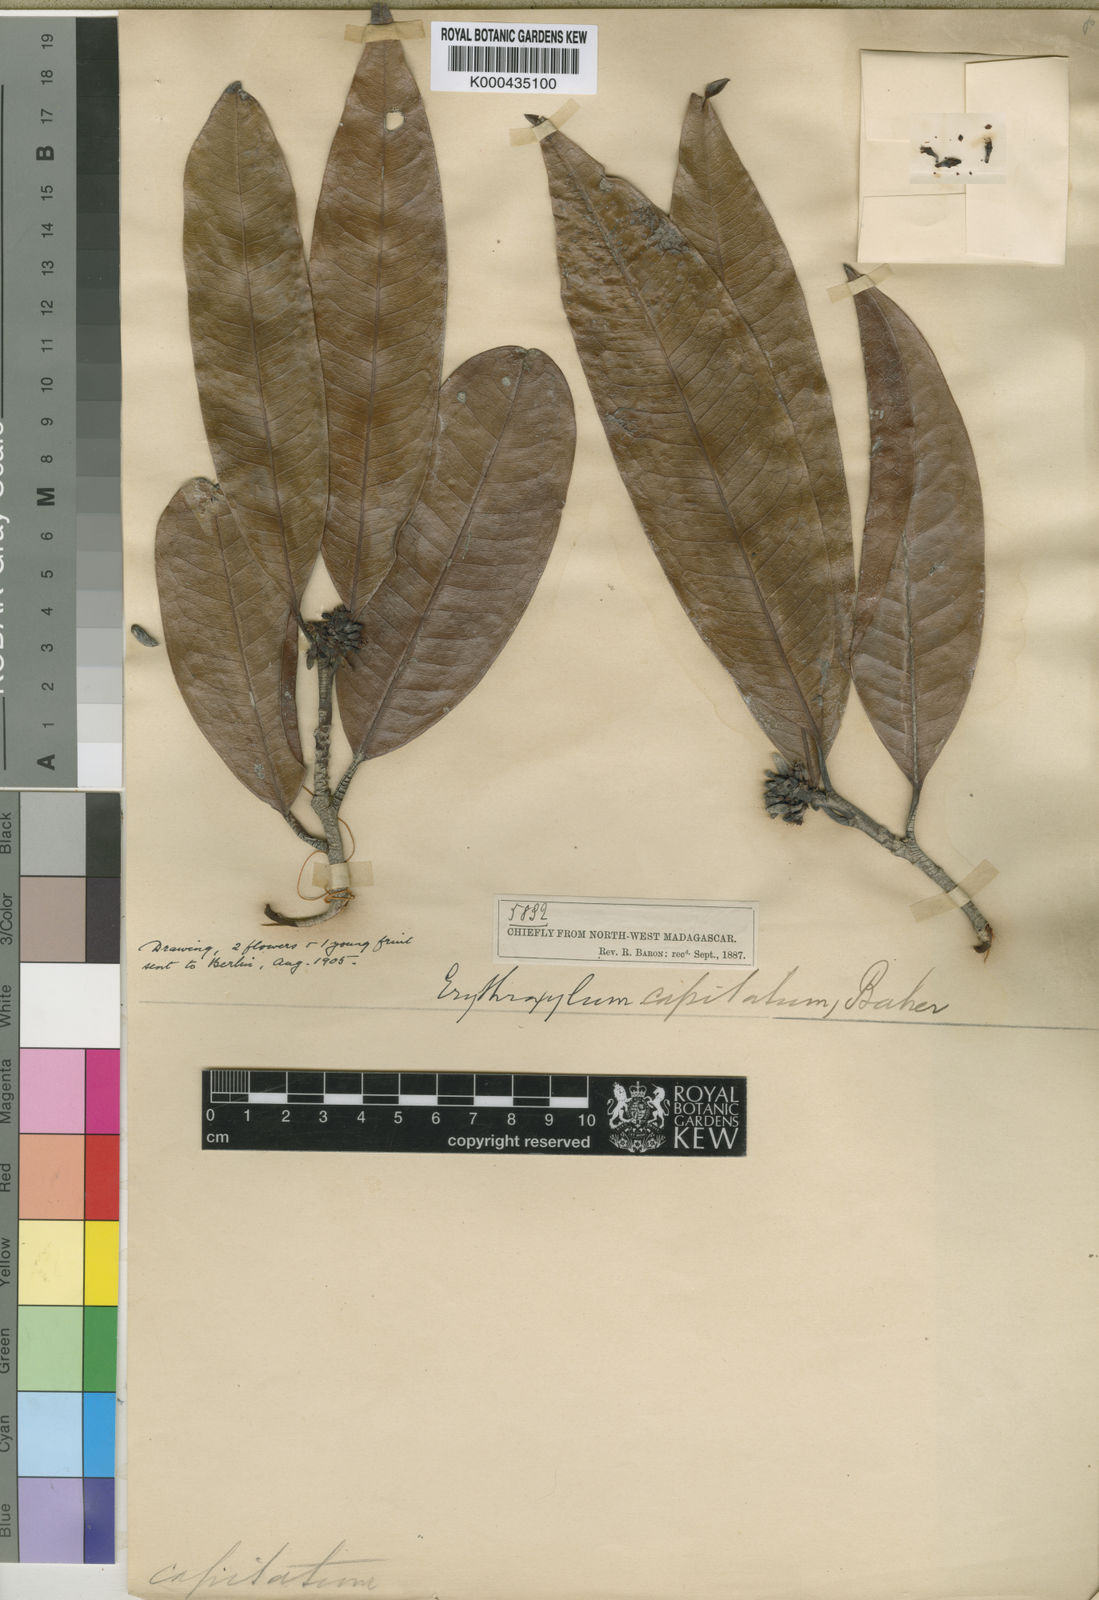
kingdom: Plantae
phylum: Tracheophyta
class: Magnoliopsida
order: Malpighiales
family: Erythroxylaceae
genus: Erythroxylum
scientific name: Erythroxylum
